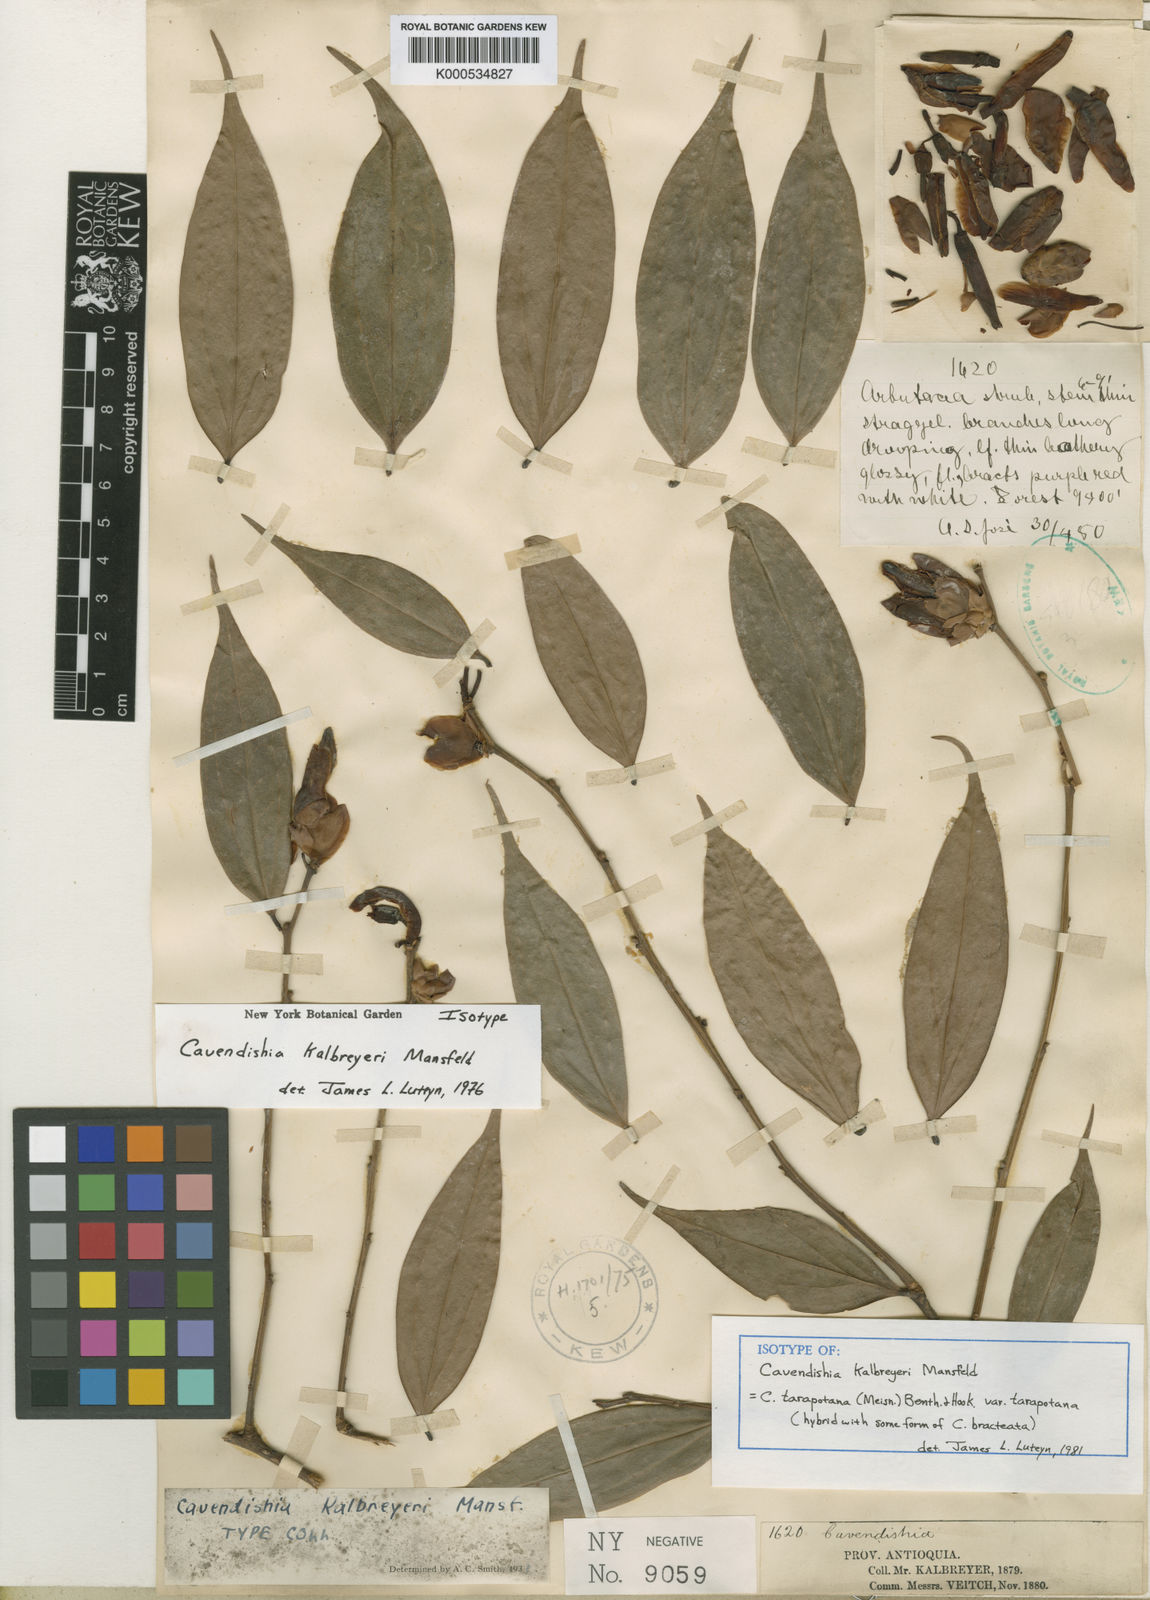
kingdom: Plantae
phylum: Tracheophyta
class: Magnoliopsida
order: Ericales
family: Ericaceae
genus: Cavendishia
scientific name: Cavendishia tarapotana
